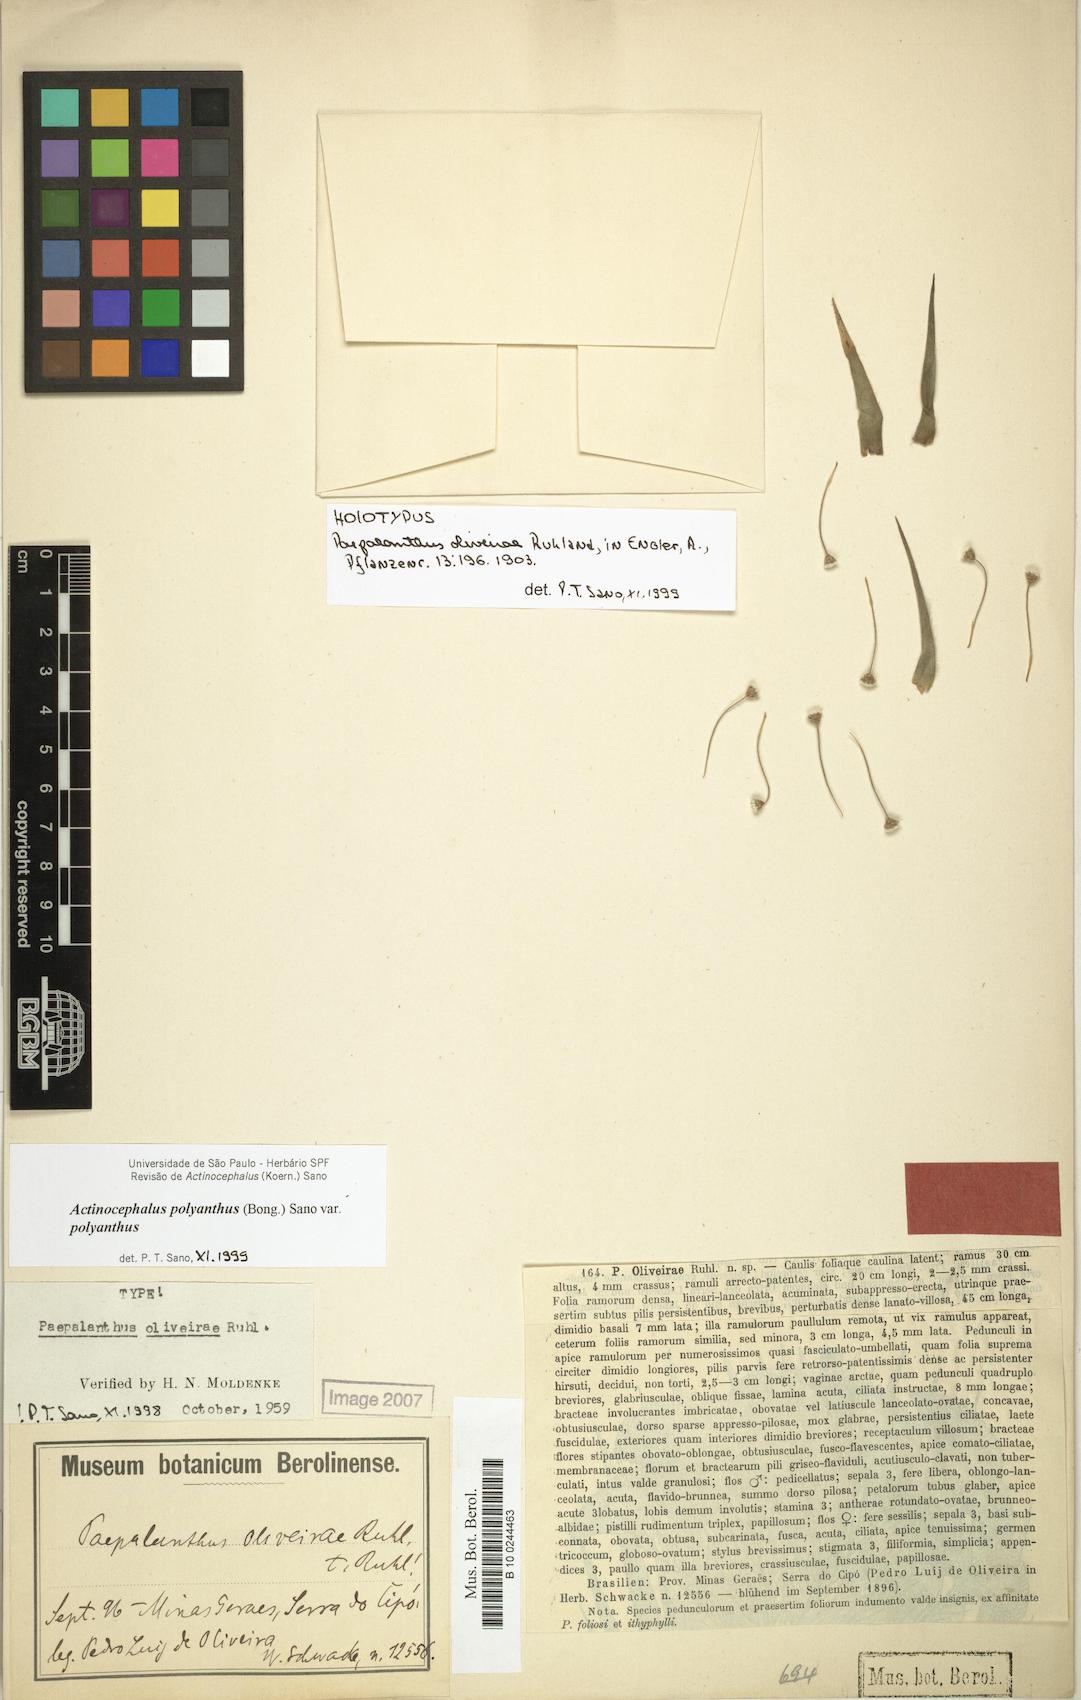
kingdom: Plantae
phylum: Tracheophyta
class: Liliopsida
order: Poales
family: Eriocaulaceae
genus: Paepalanthus
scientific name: Paepalanthus polyanthus
